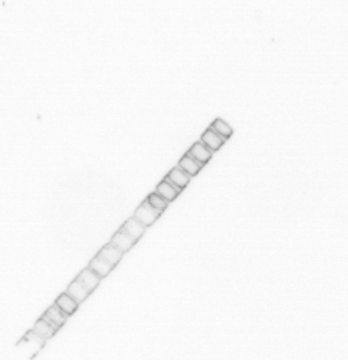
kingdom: Chromista
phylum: Ochrophyta
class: Bacillariophyceae
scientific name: Bacillariophyceae
